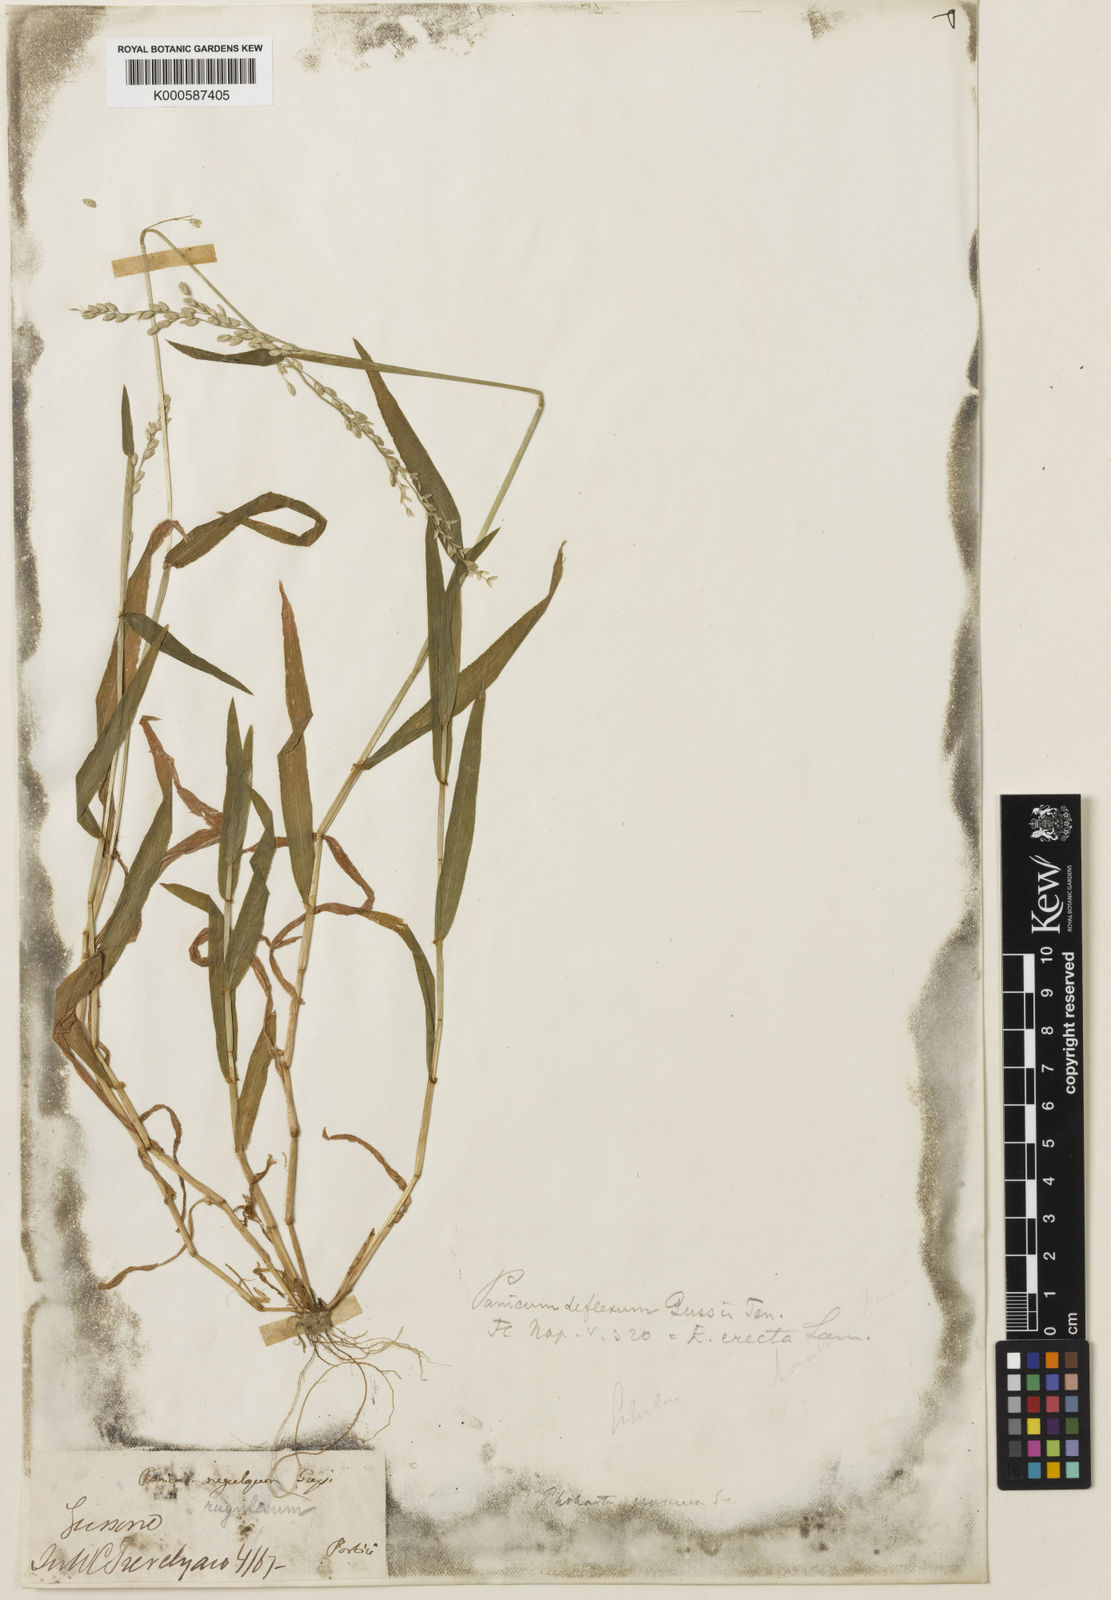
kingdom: Plantae
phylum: Tracheophyta
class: Liliopsida
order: Poales
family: Poaceae
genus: Ehrharta
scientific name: Ehrharta erecta
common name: Panic veldtgrass
